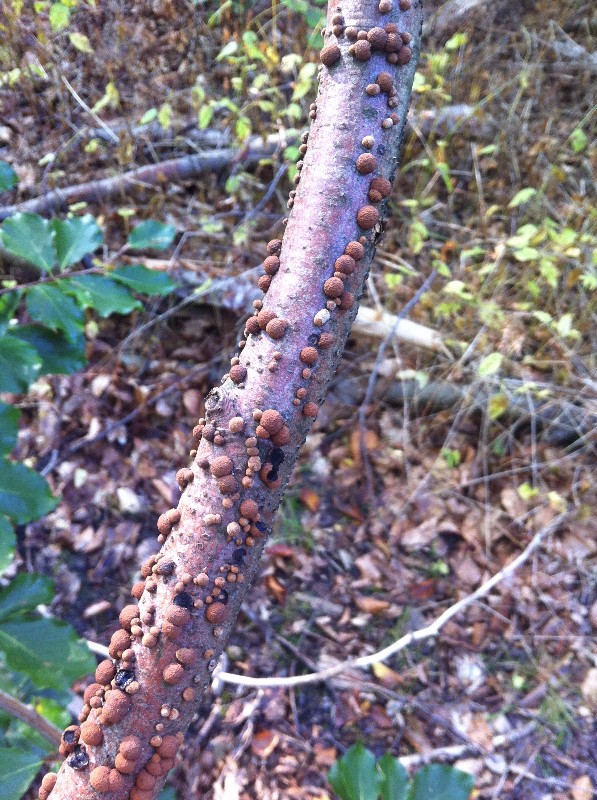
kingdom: Fungi
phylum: Ascomycota
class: Sordariomycetes
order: Xylariales
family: Hypoxylaceae
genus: Hypoxylon
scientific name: Hypoxylon fragiforme
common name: kuljordbær
